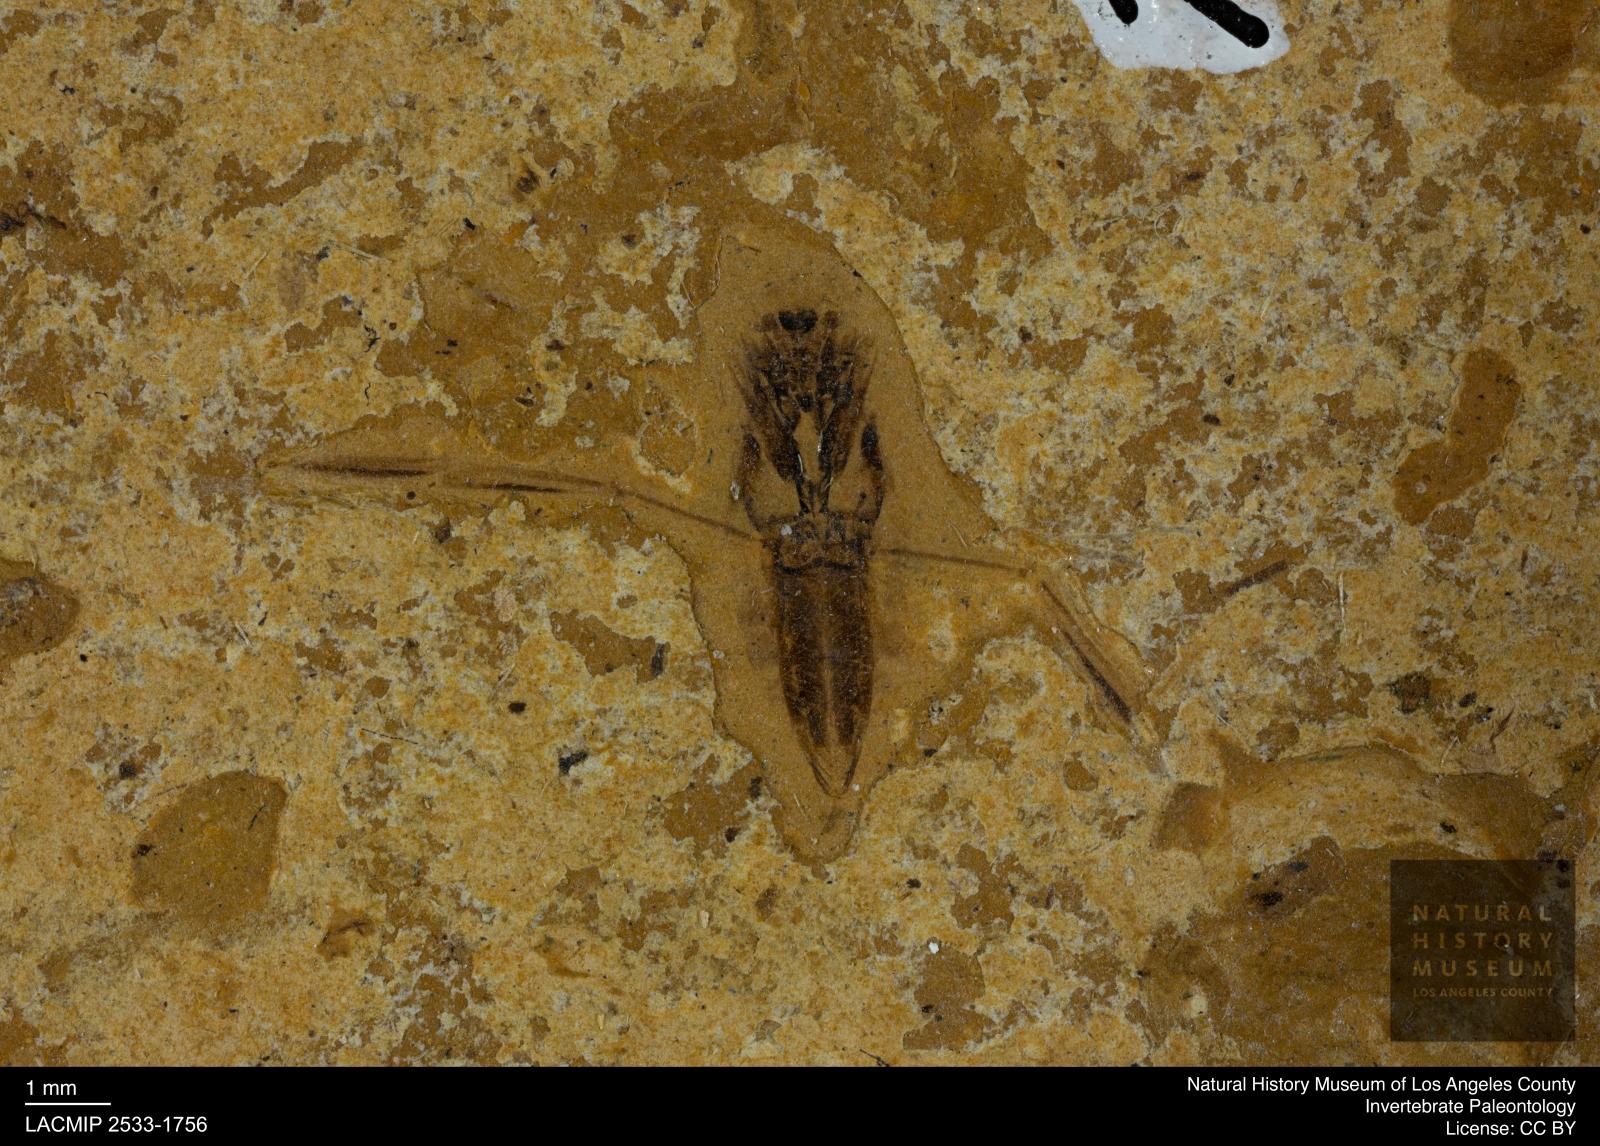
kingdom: Animalia
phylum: Arthropoda
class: Insecta
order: Hemiptera
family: Notonectidae
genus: Notonecta
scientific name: Notonecta
